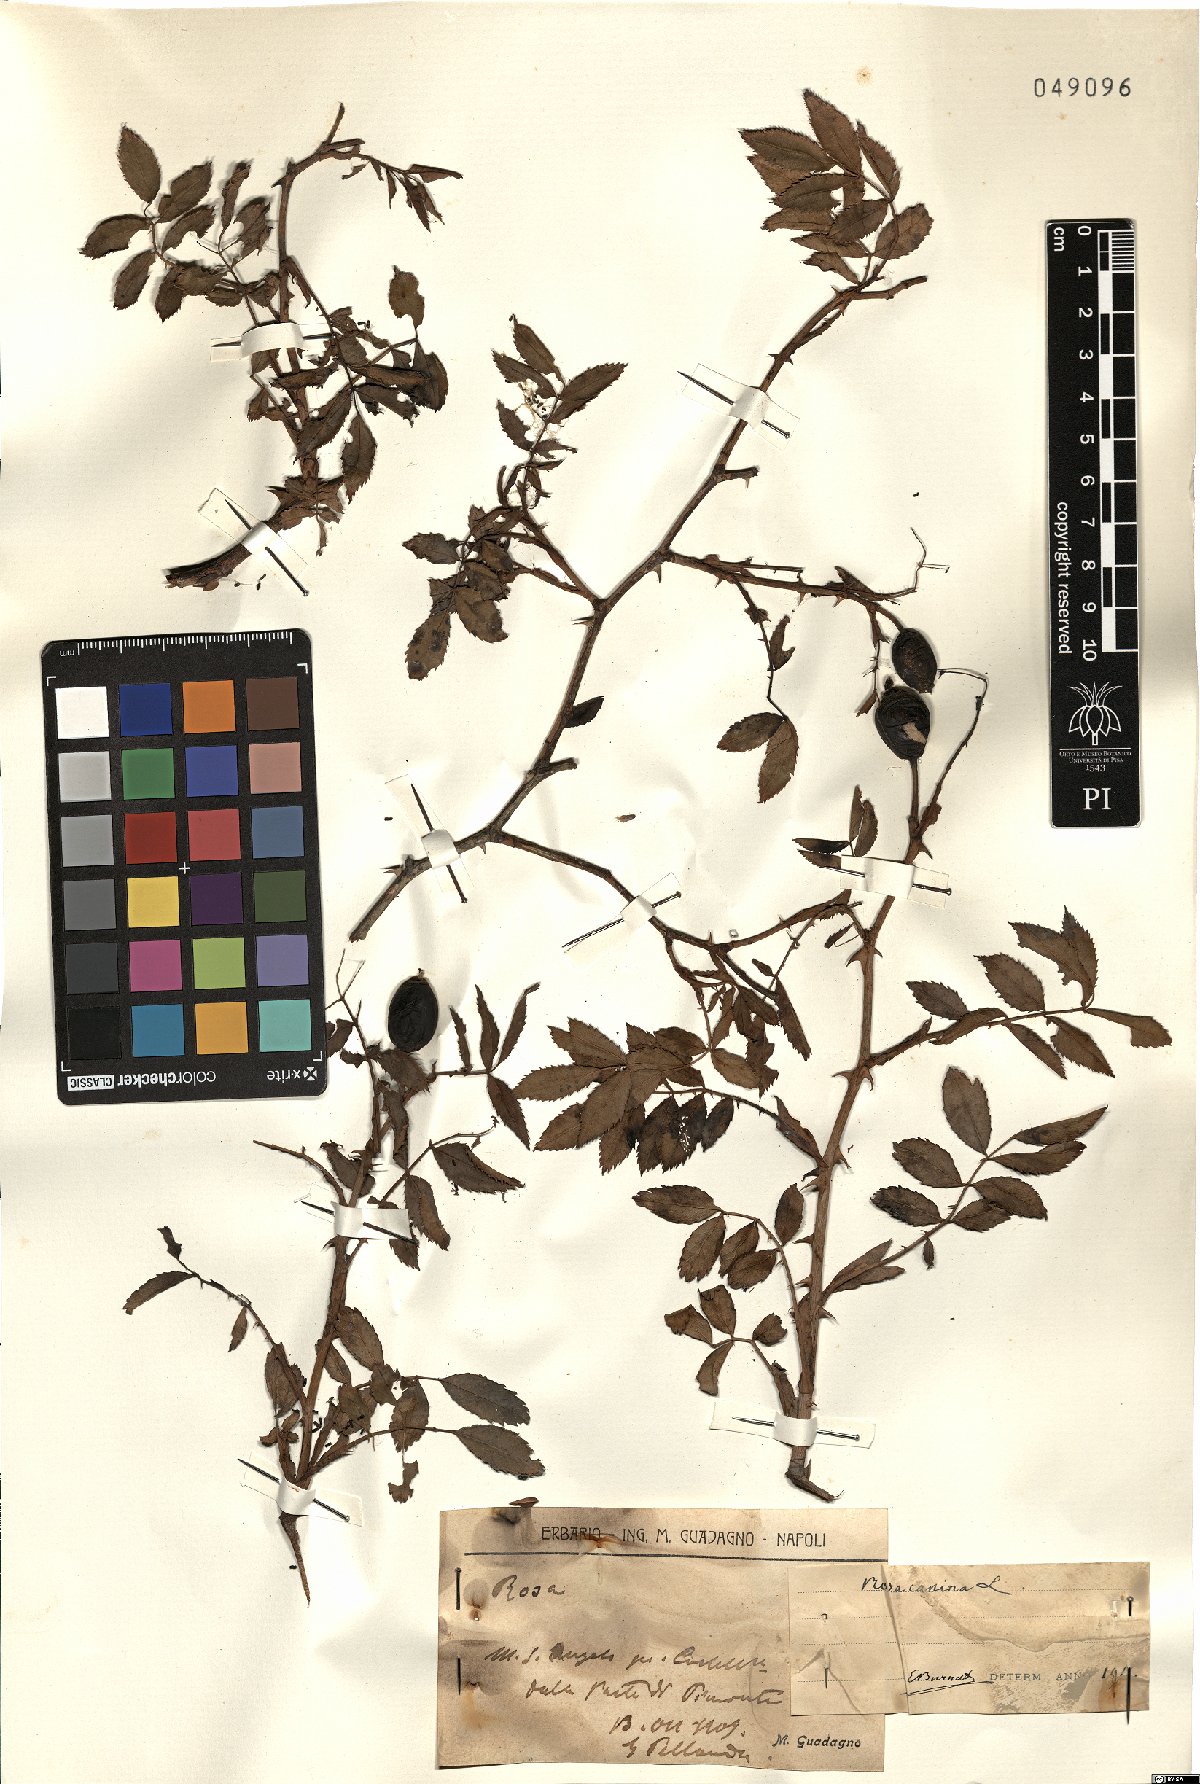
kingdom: Plantae
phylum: Tracheophyta
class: Magnoliopsida
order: Rosales
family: Rosaceae
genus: Rosa
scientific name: Rosa canina
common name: Dog rose
